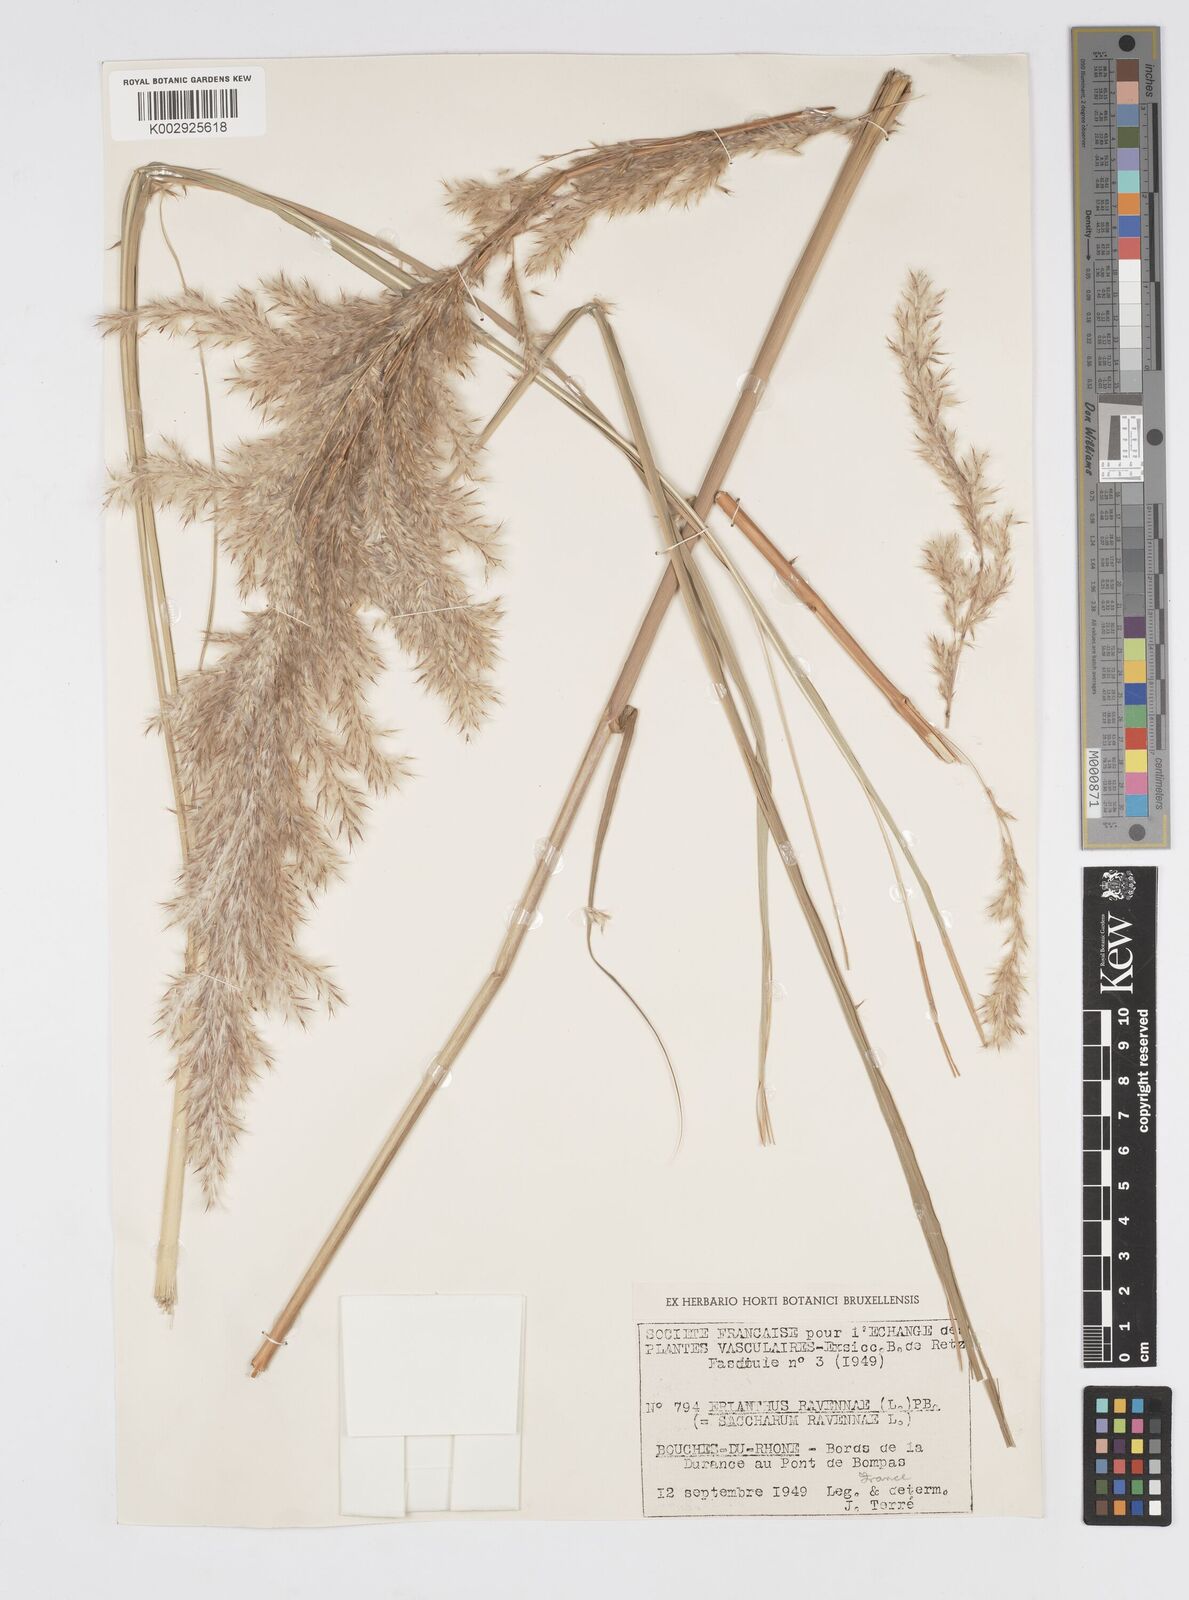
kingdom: Plantae
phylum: Tracheophyta
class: Liliopsida
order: Poales
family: Poaceae
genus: Tripidium
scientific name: Tripidium ravennae
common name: Ravenna grass
